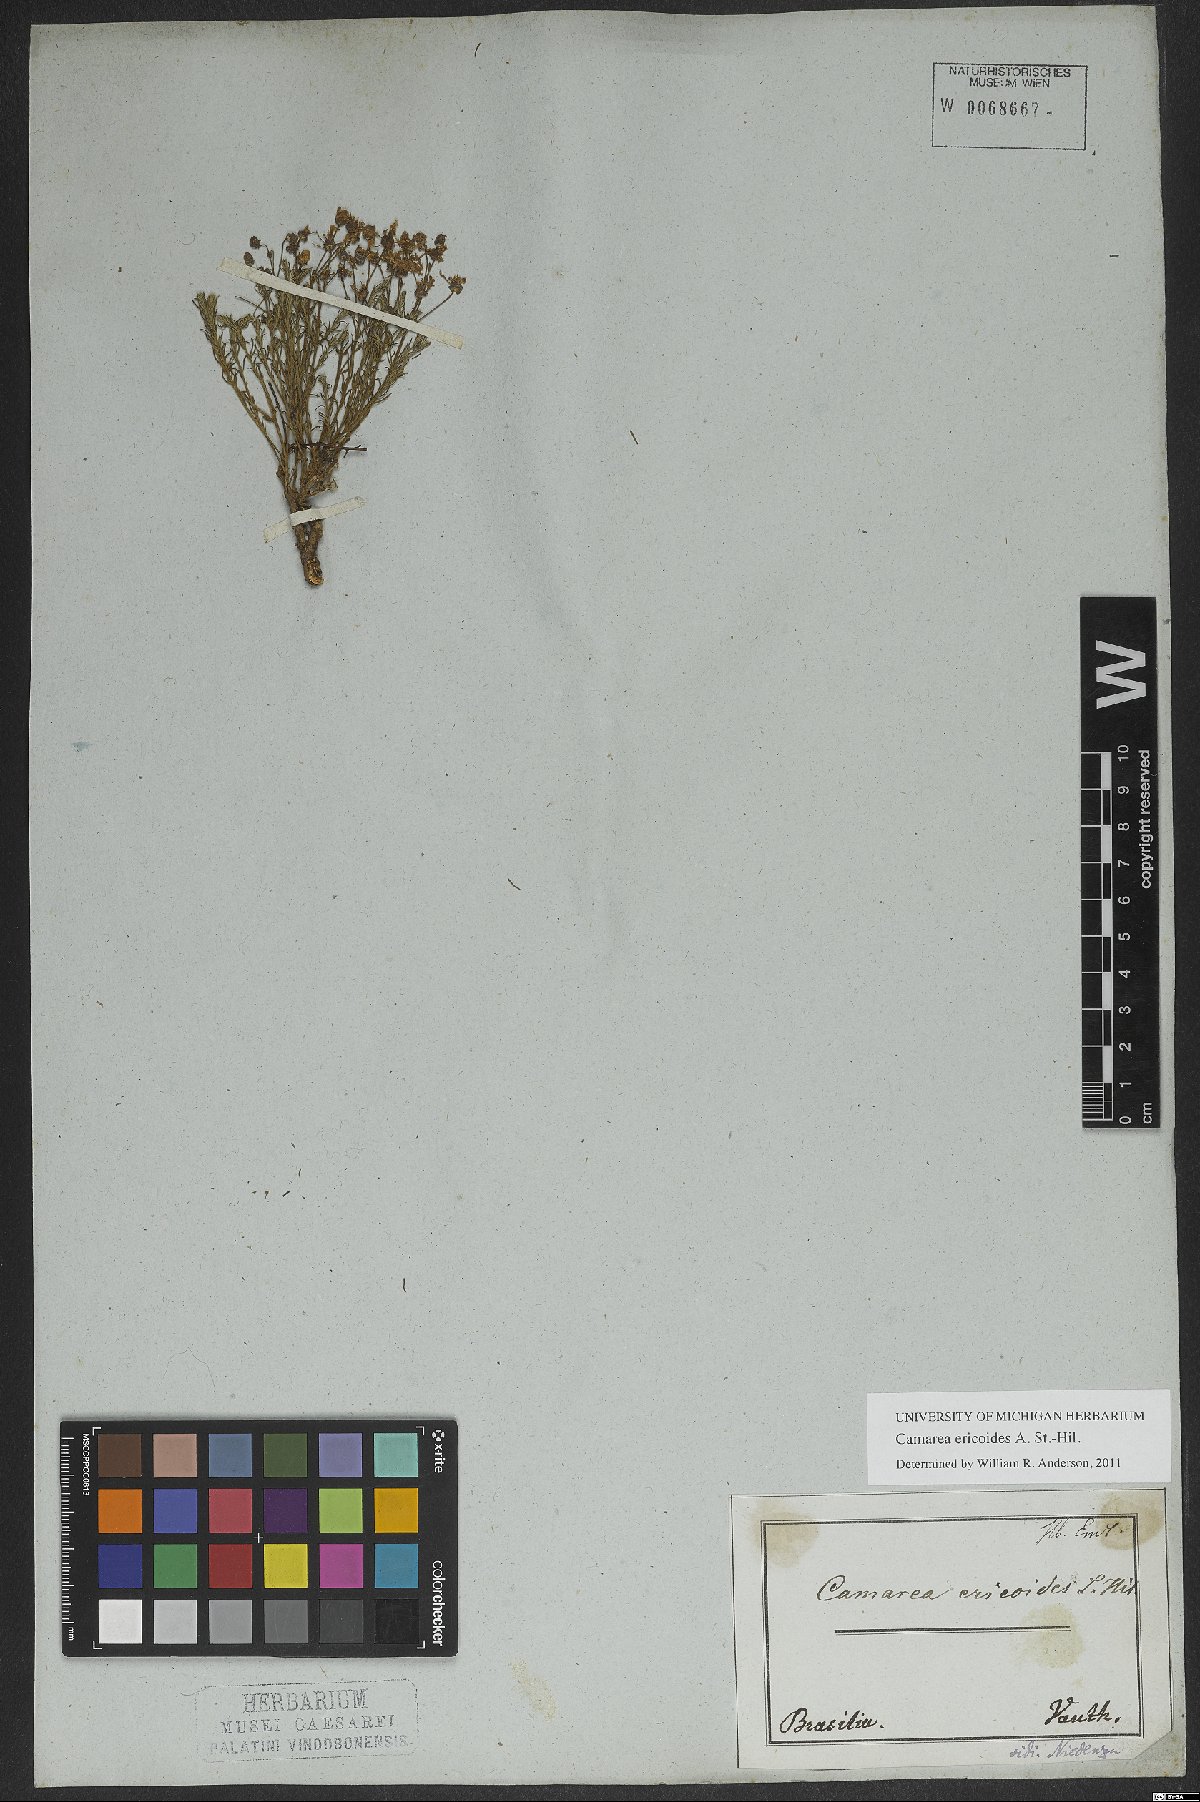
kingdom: Plantae
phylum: Tracheophyta
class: Magnoliopsida
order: Malpighiales
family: Malpighiaceae
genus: Camarea
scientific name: Camarea ericoides
